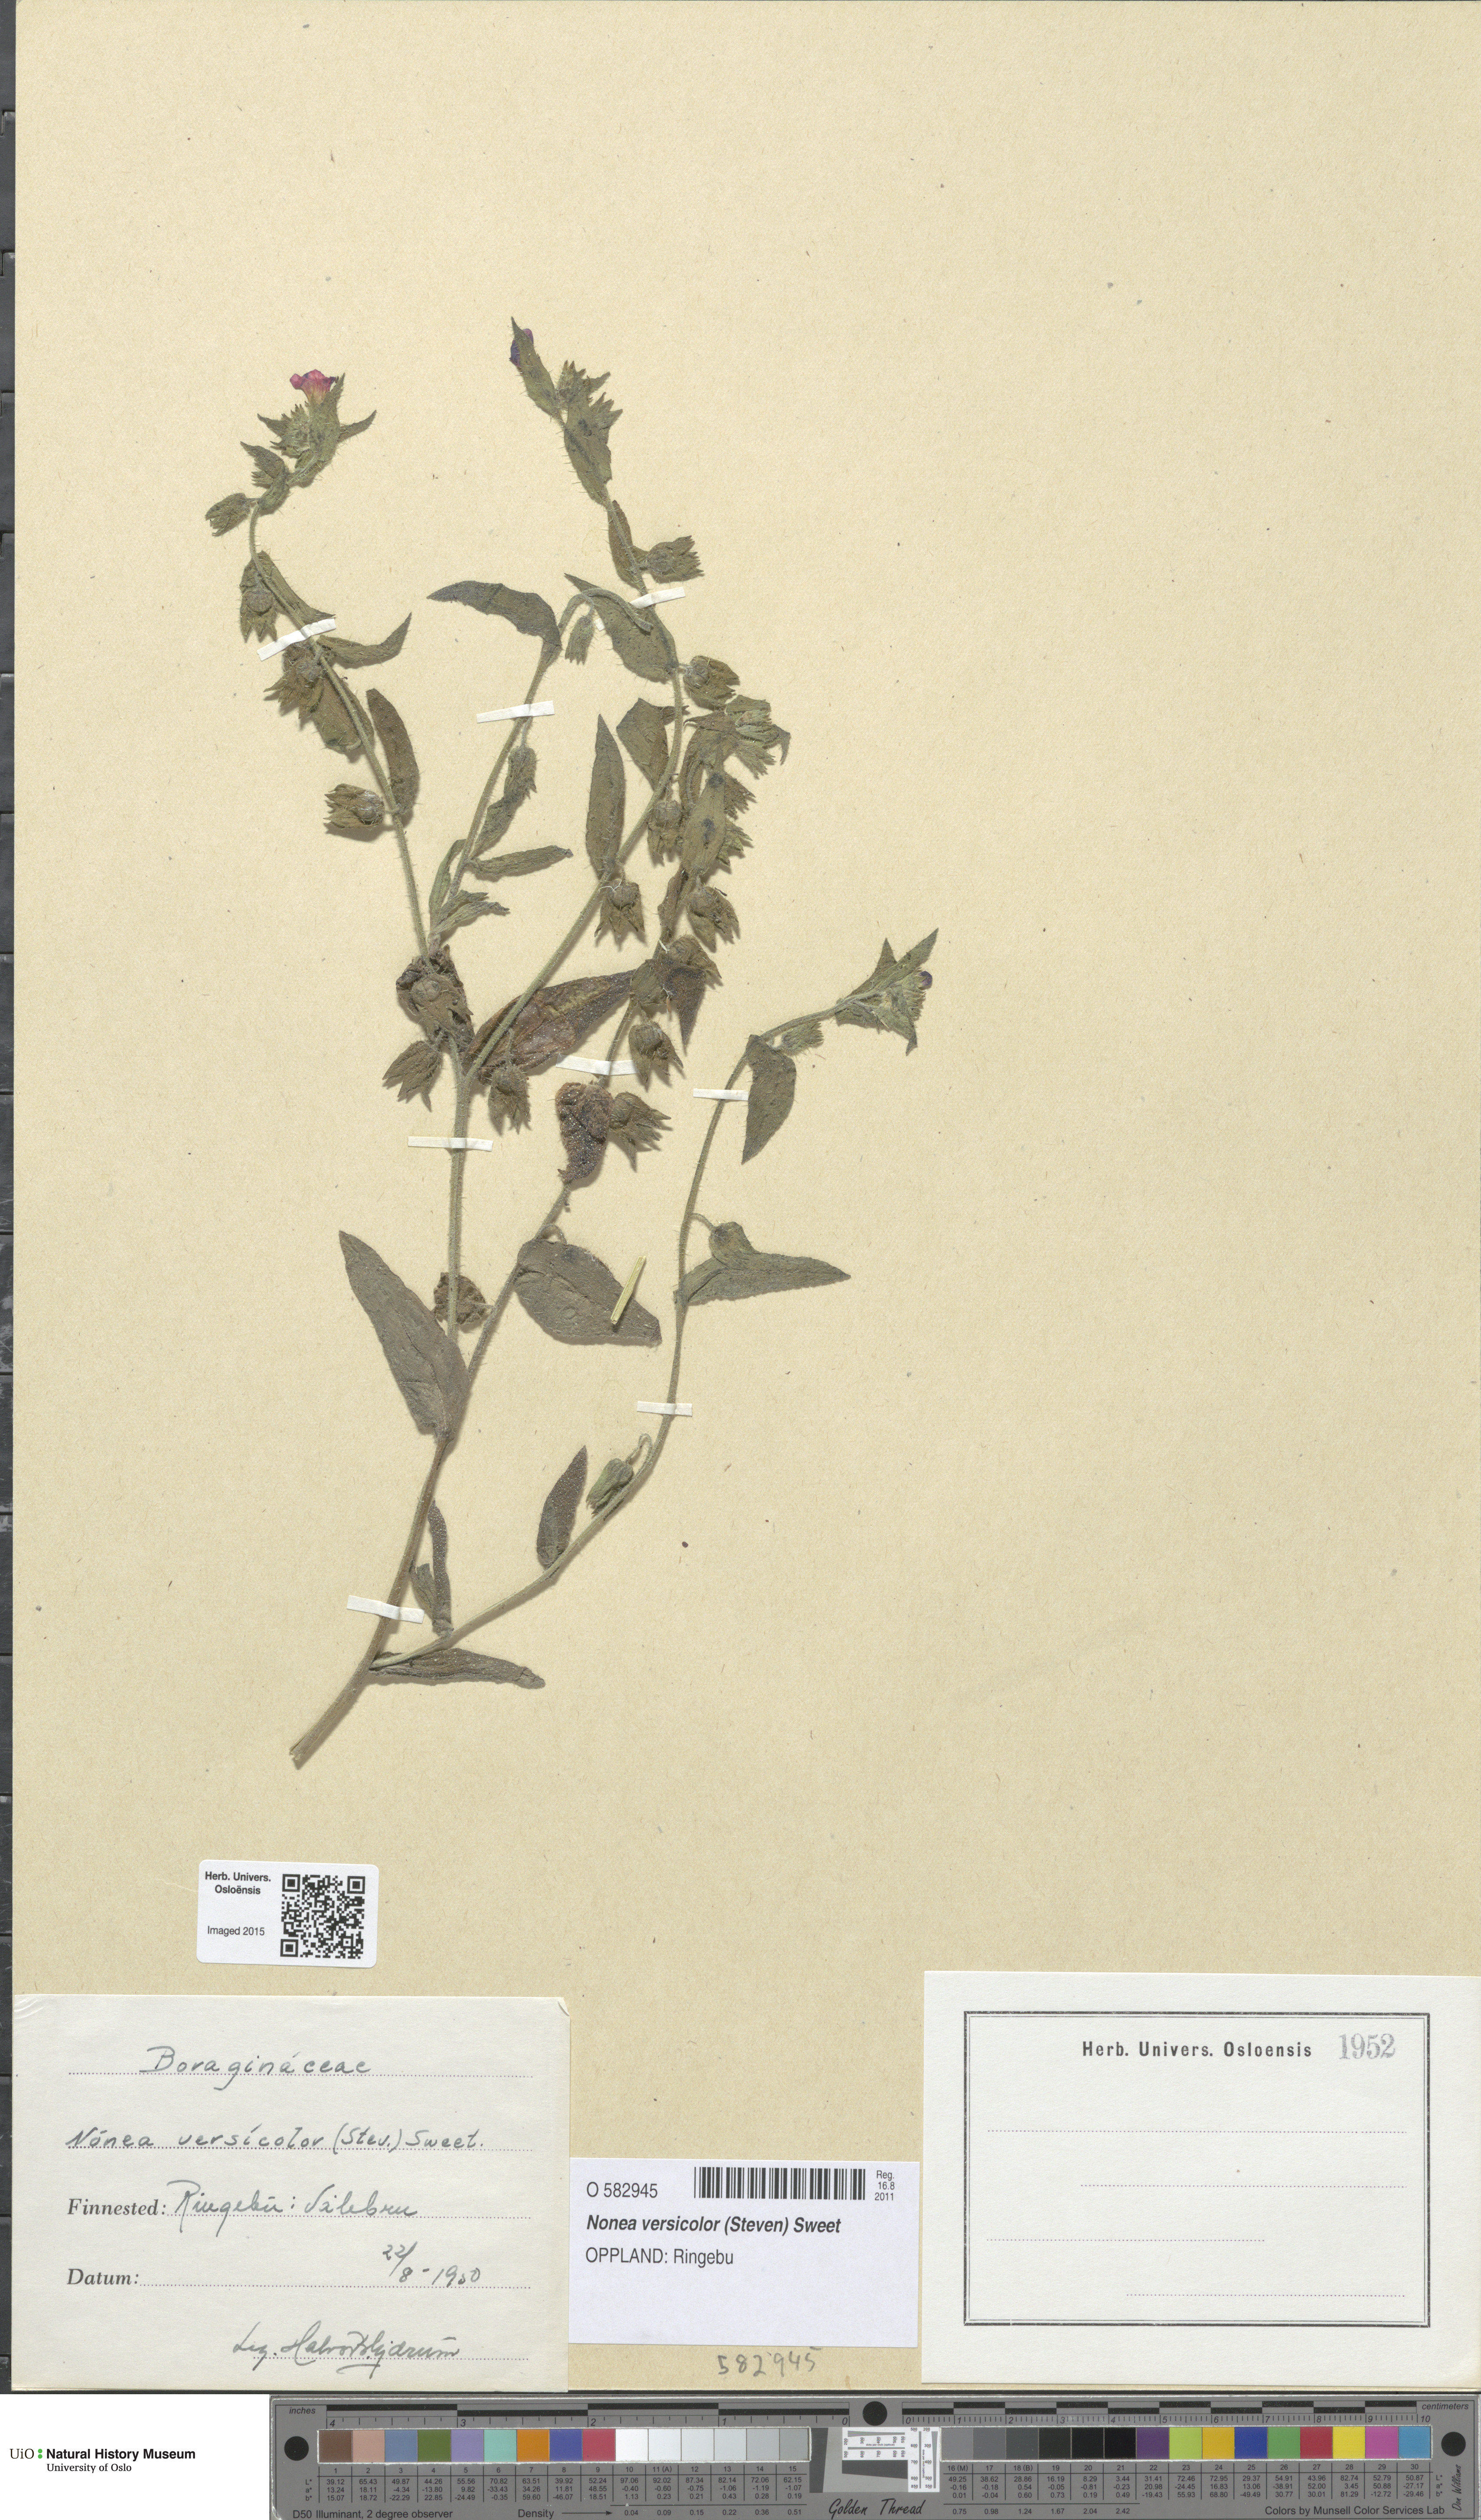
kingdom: Plantae
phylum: Tracheophyta
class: Magnoliopsida
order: Boraginales
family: Boraginaceae
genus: Nonea
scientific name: Nonea versicolor
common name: Varied monkswort
